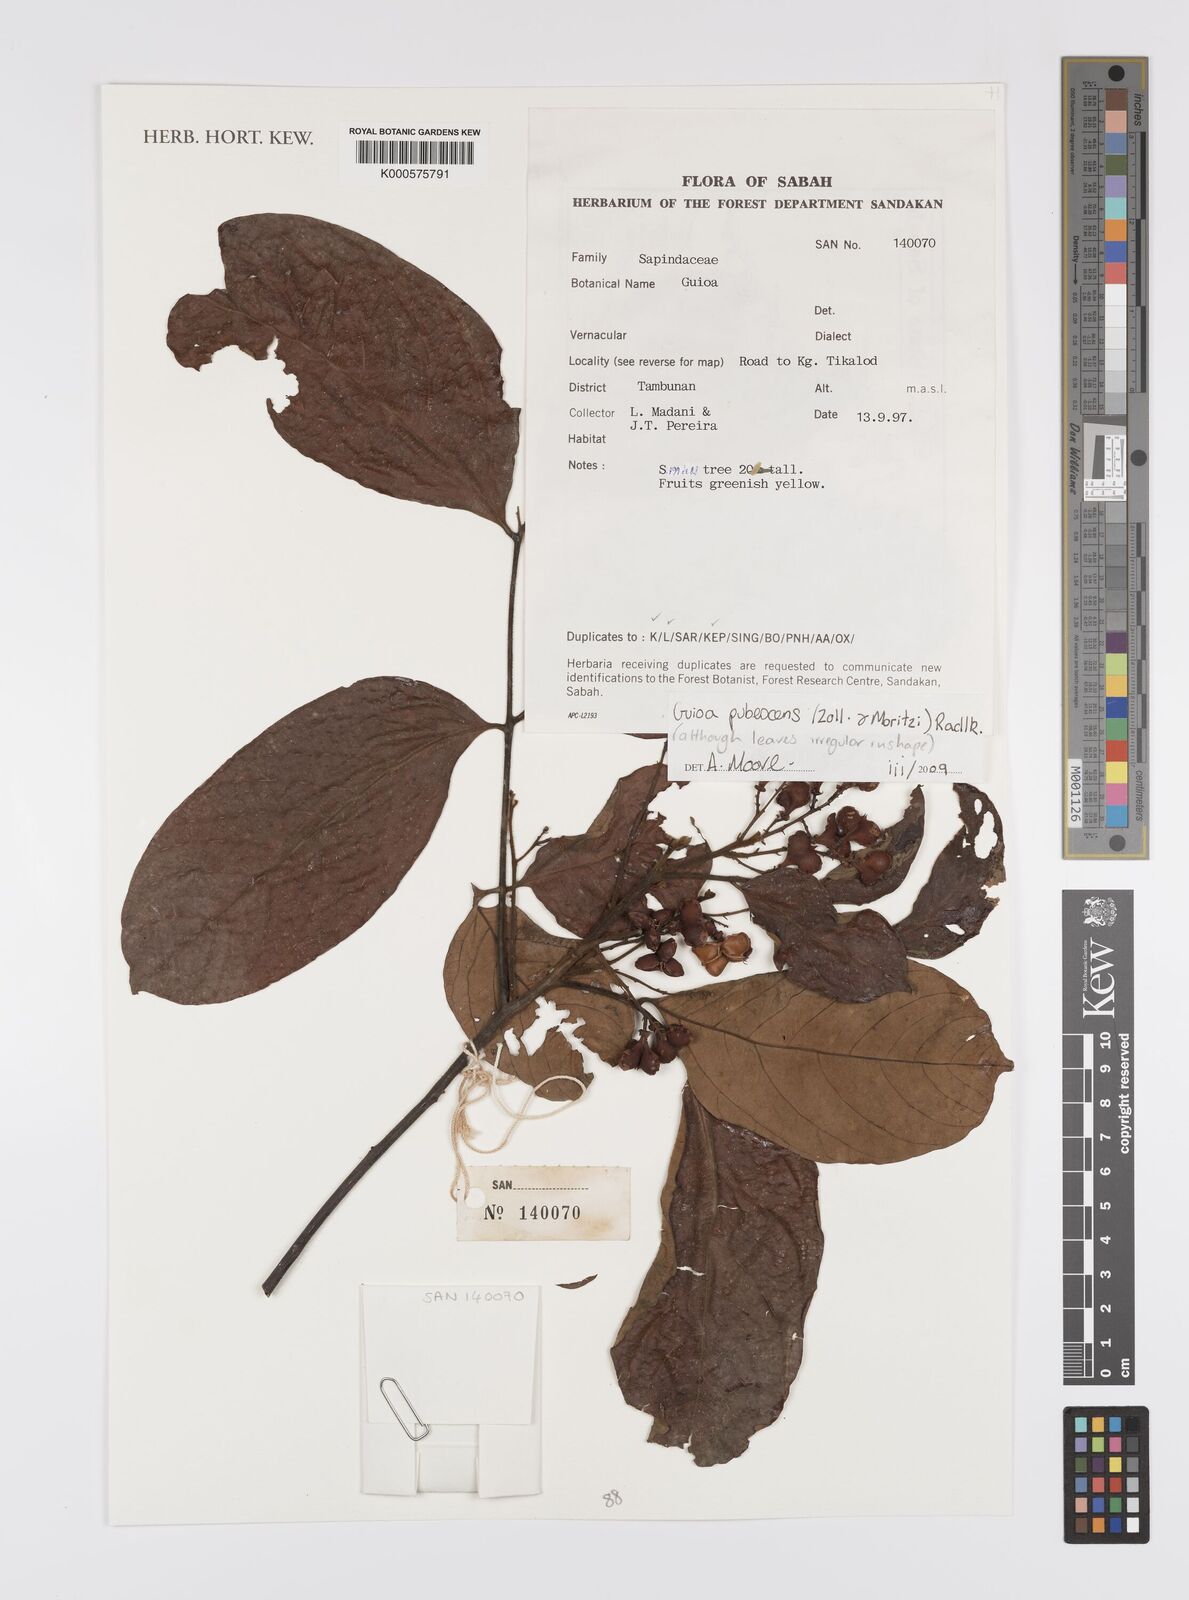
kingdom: Plantae
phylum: Tracheophyta
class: Magnoliopsida
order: Sapindales
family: Sapindaceae
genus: Guioa
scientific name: Guioa pubescens
